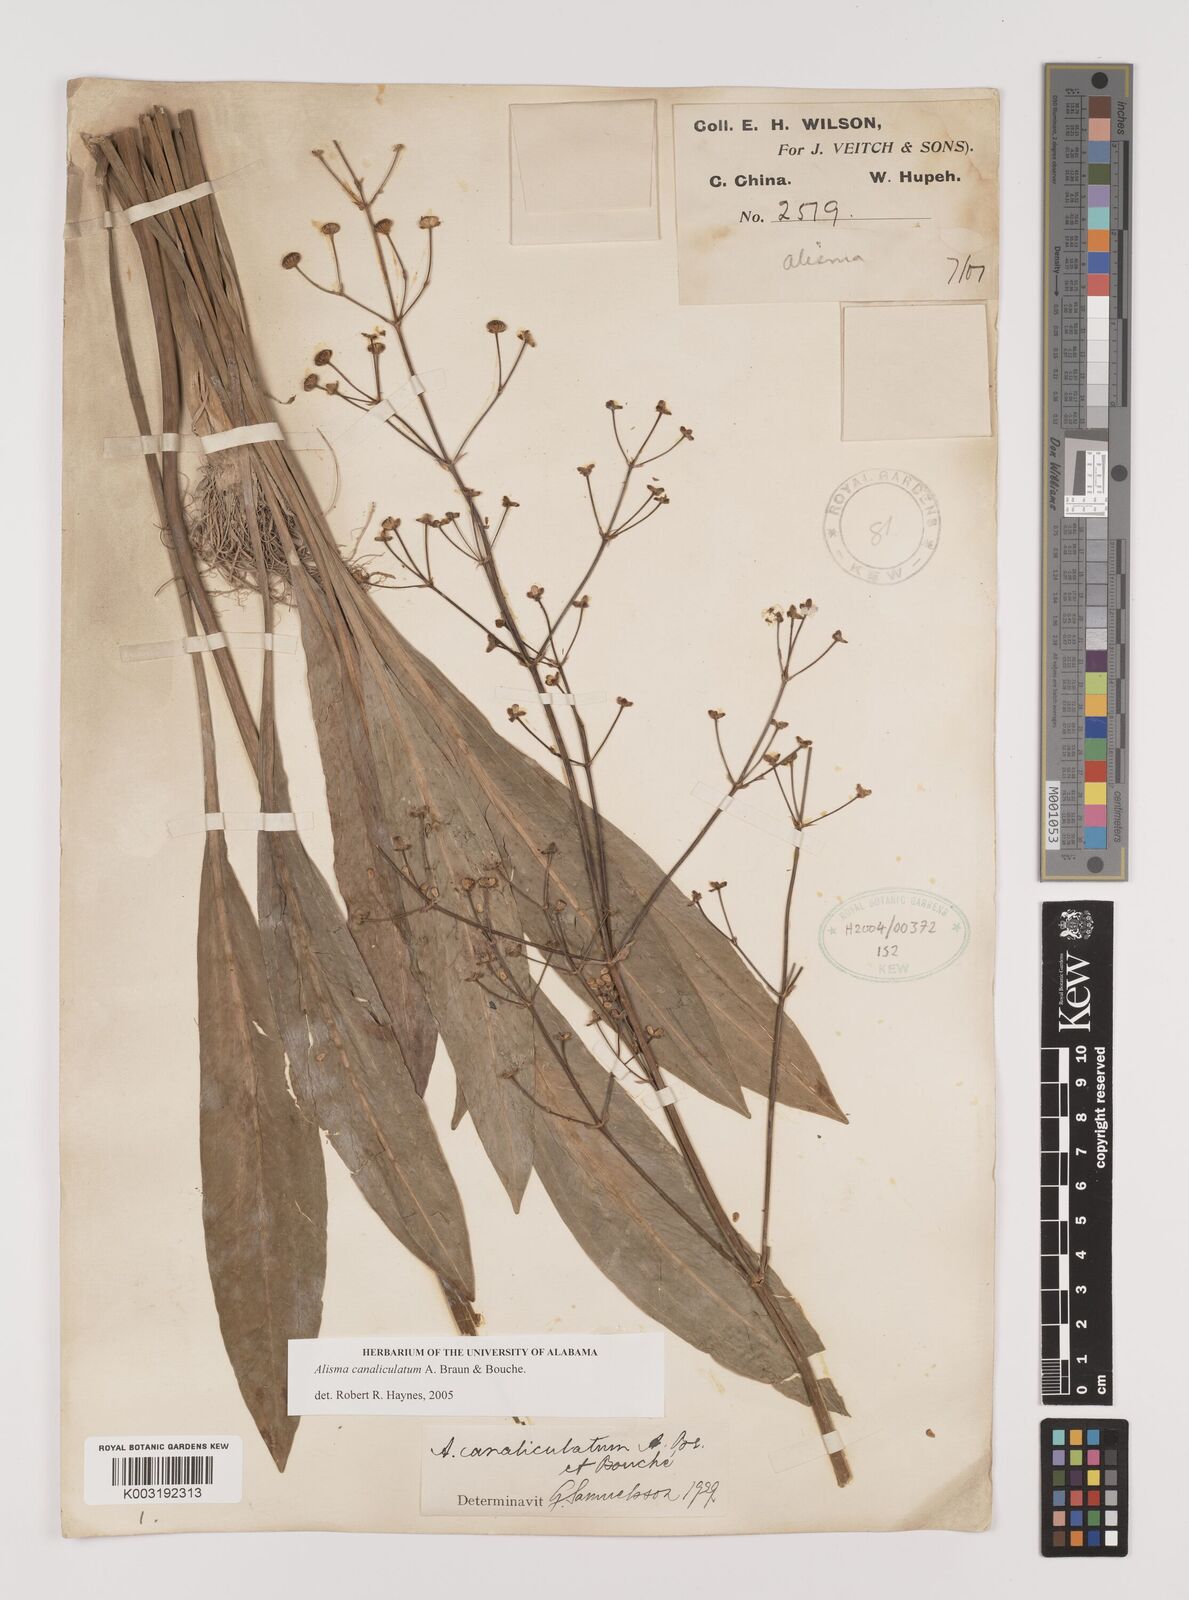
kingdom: Plantae
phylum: Tracheophyta
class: Liliopsida
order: Alismatales
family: Alismataceae
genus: Alisma
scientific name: Alisma canaliculatum
